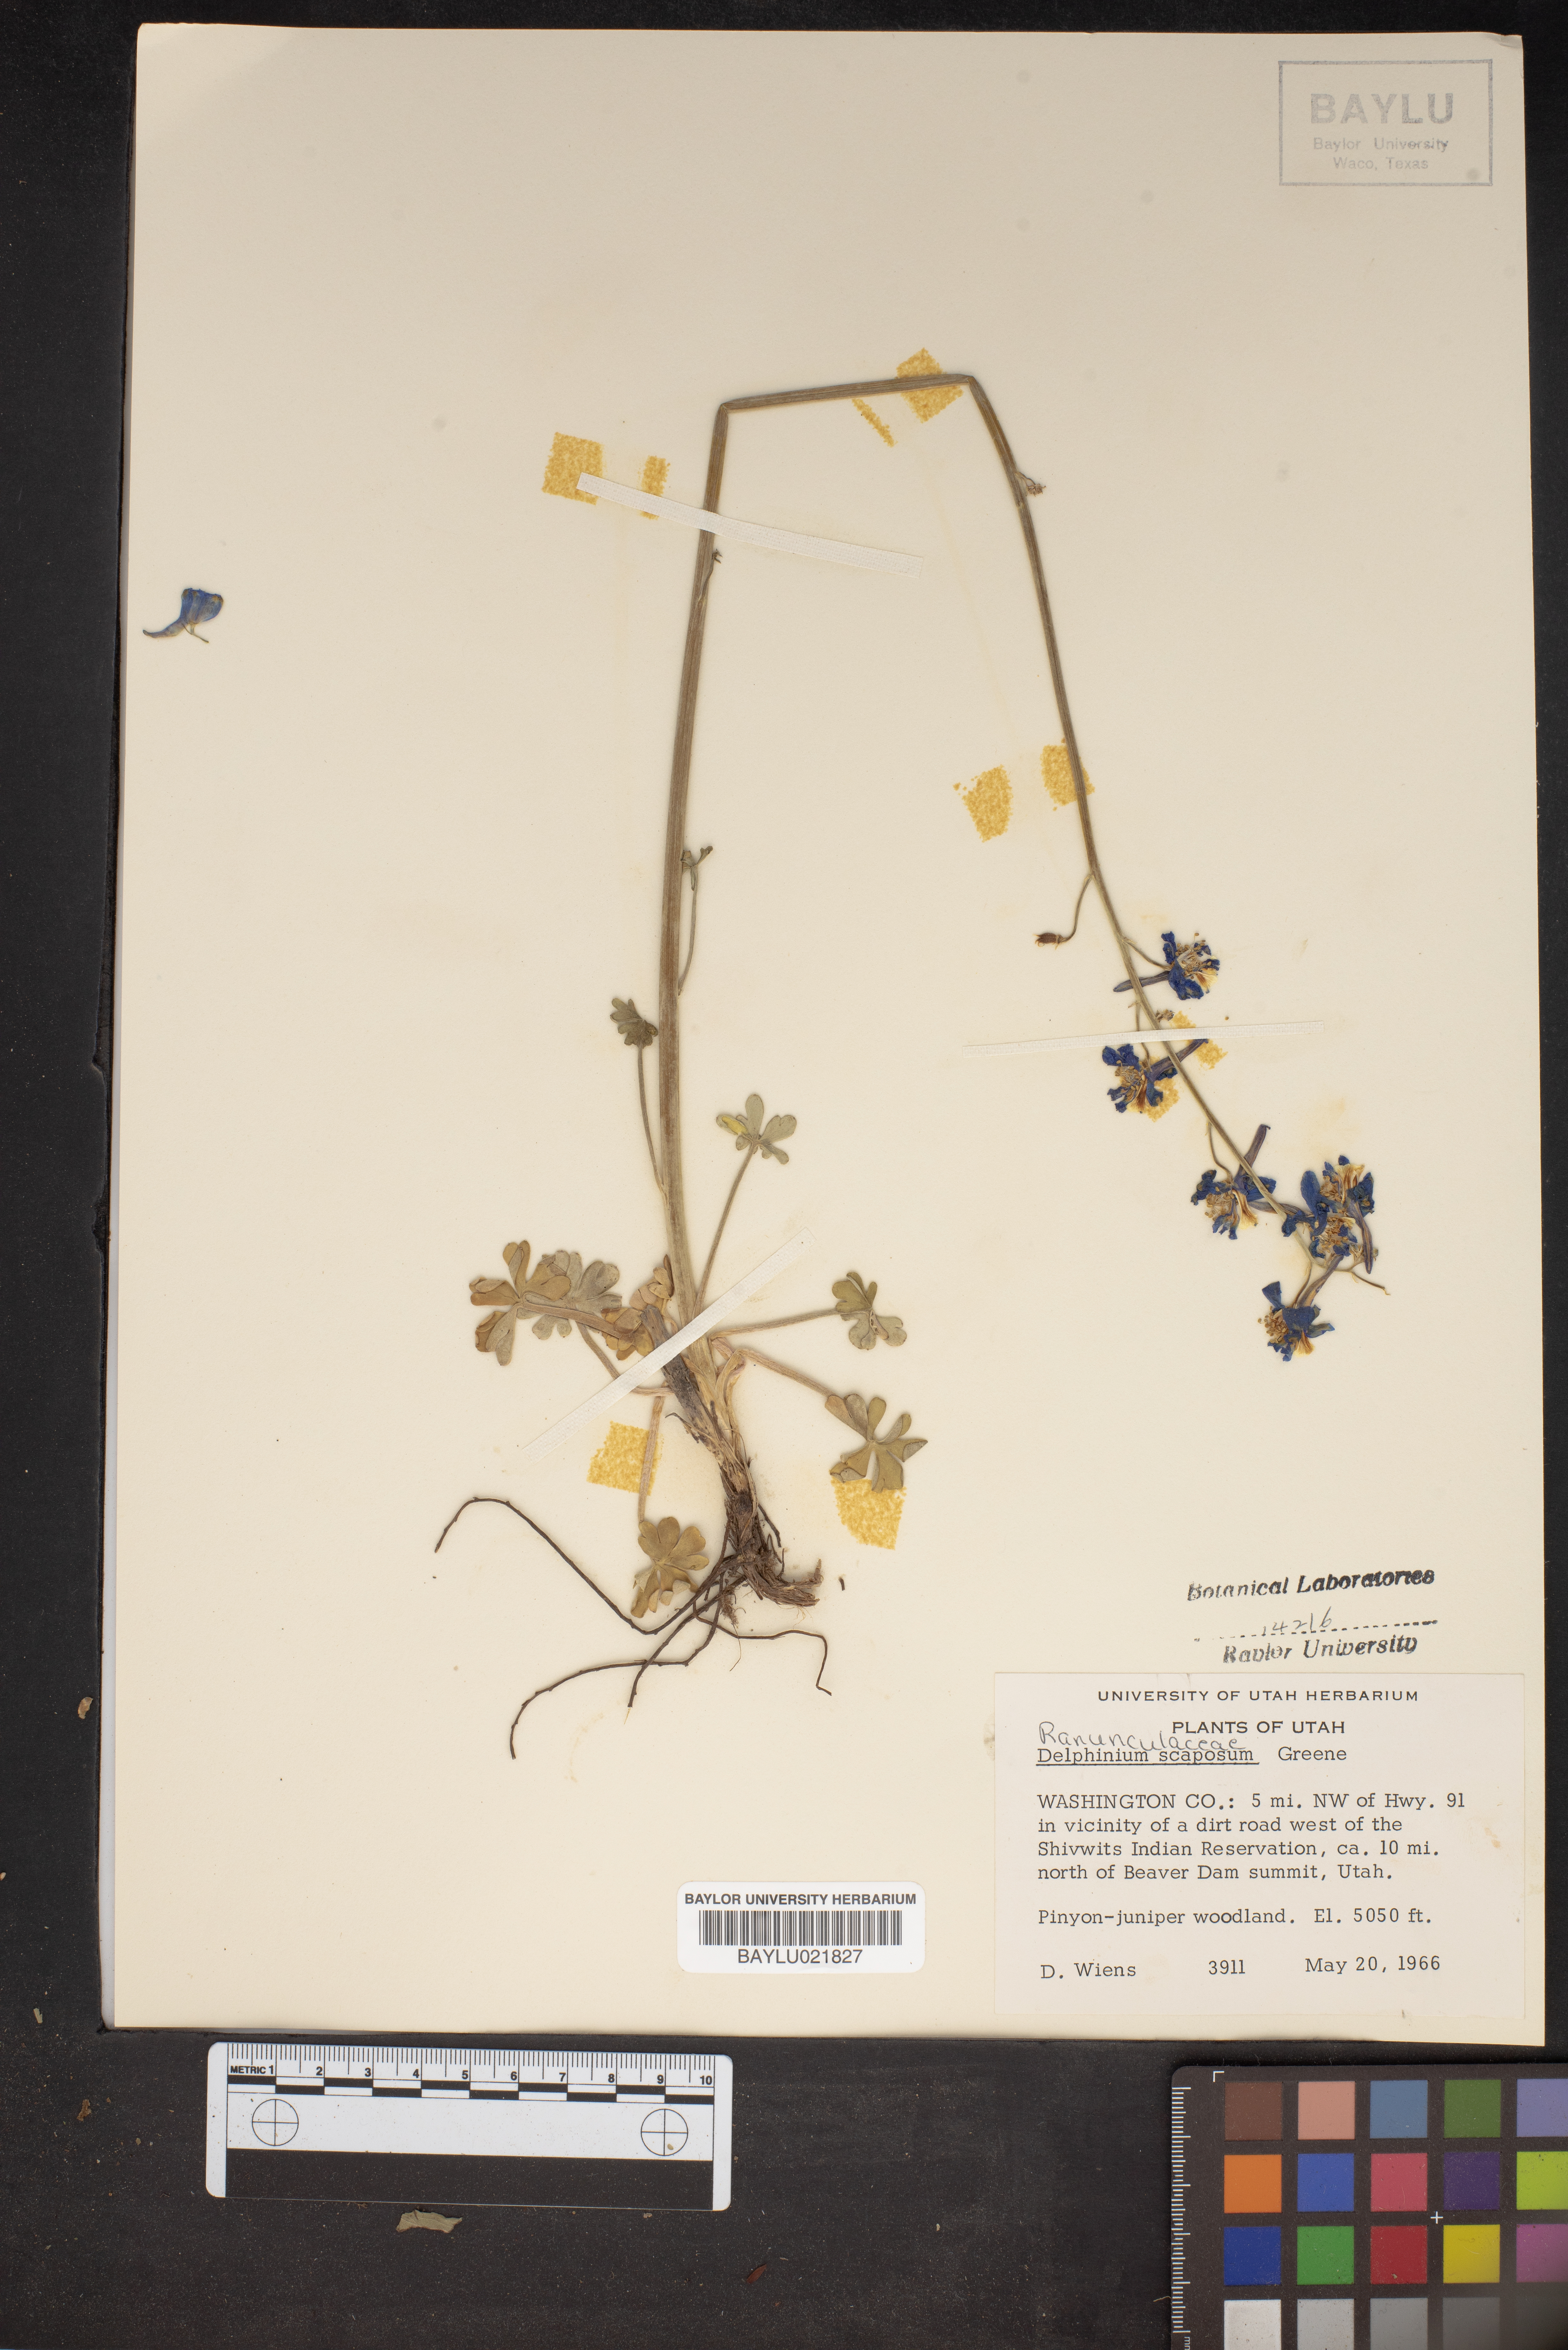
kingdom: Plantae
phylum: Tracheophyta
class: Magnoliopsida
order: Ranunculales
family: Ranunculaceae
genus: Delphinium
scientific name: Delphinium scaposum
